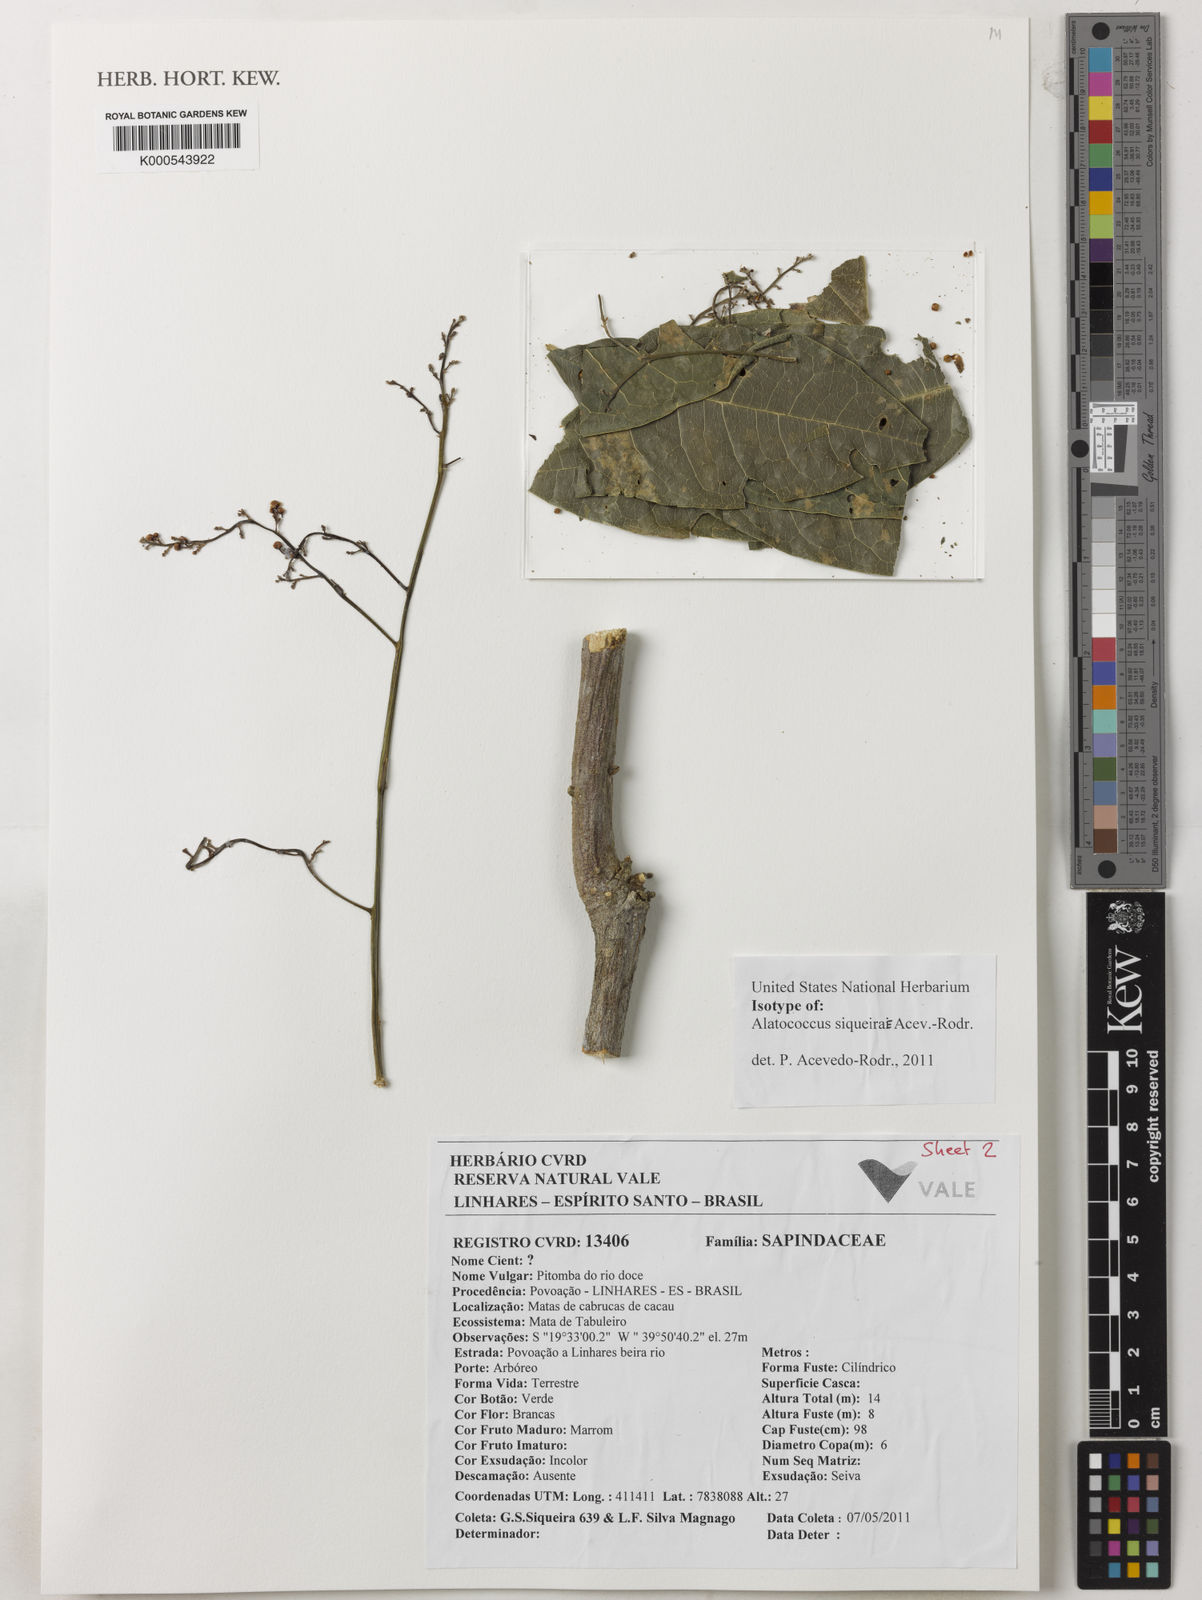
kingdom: Plantae
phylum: Tracheophyta
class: Magnoliopsida
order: Sapindales
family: Sapindaceae
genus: Alatococcus
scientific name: Alatococcus siqueirae
